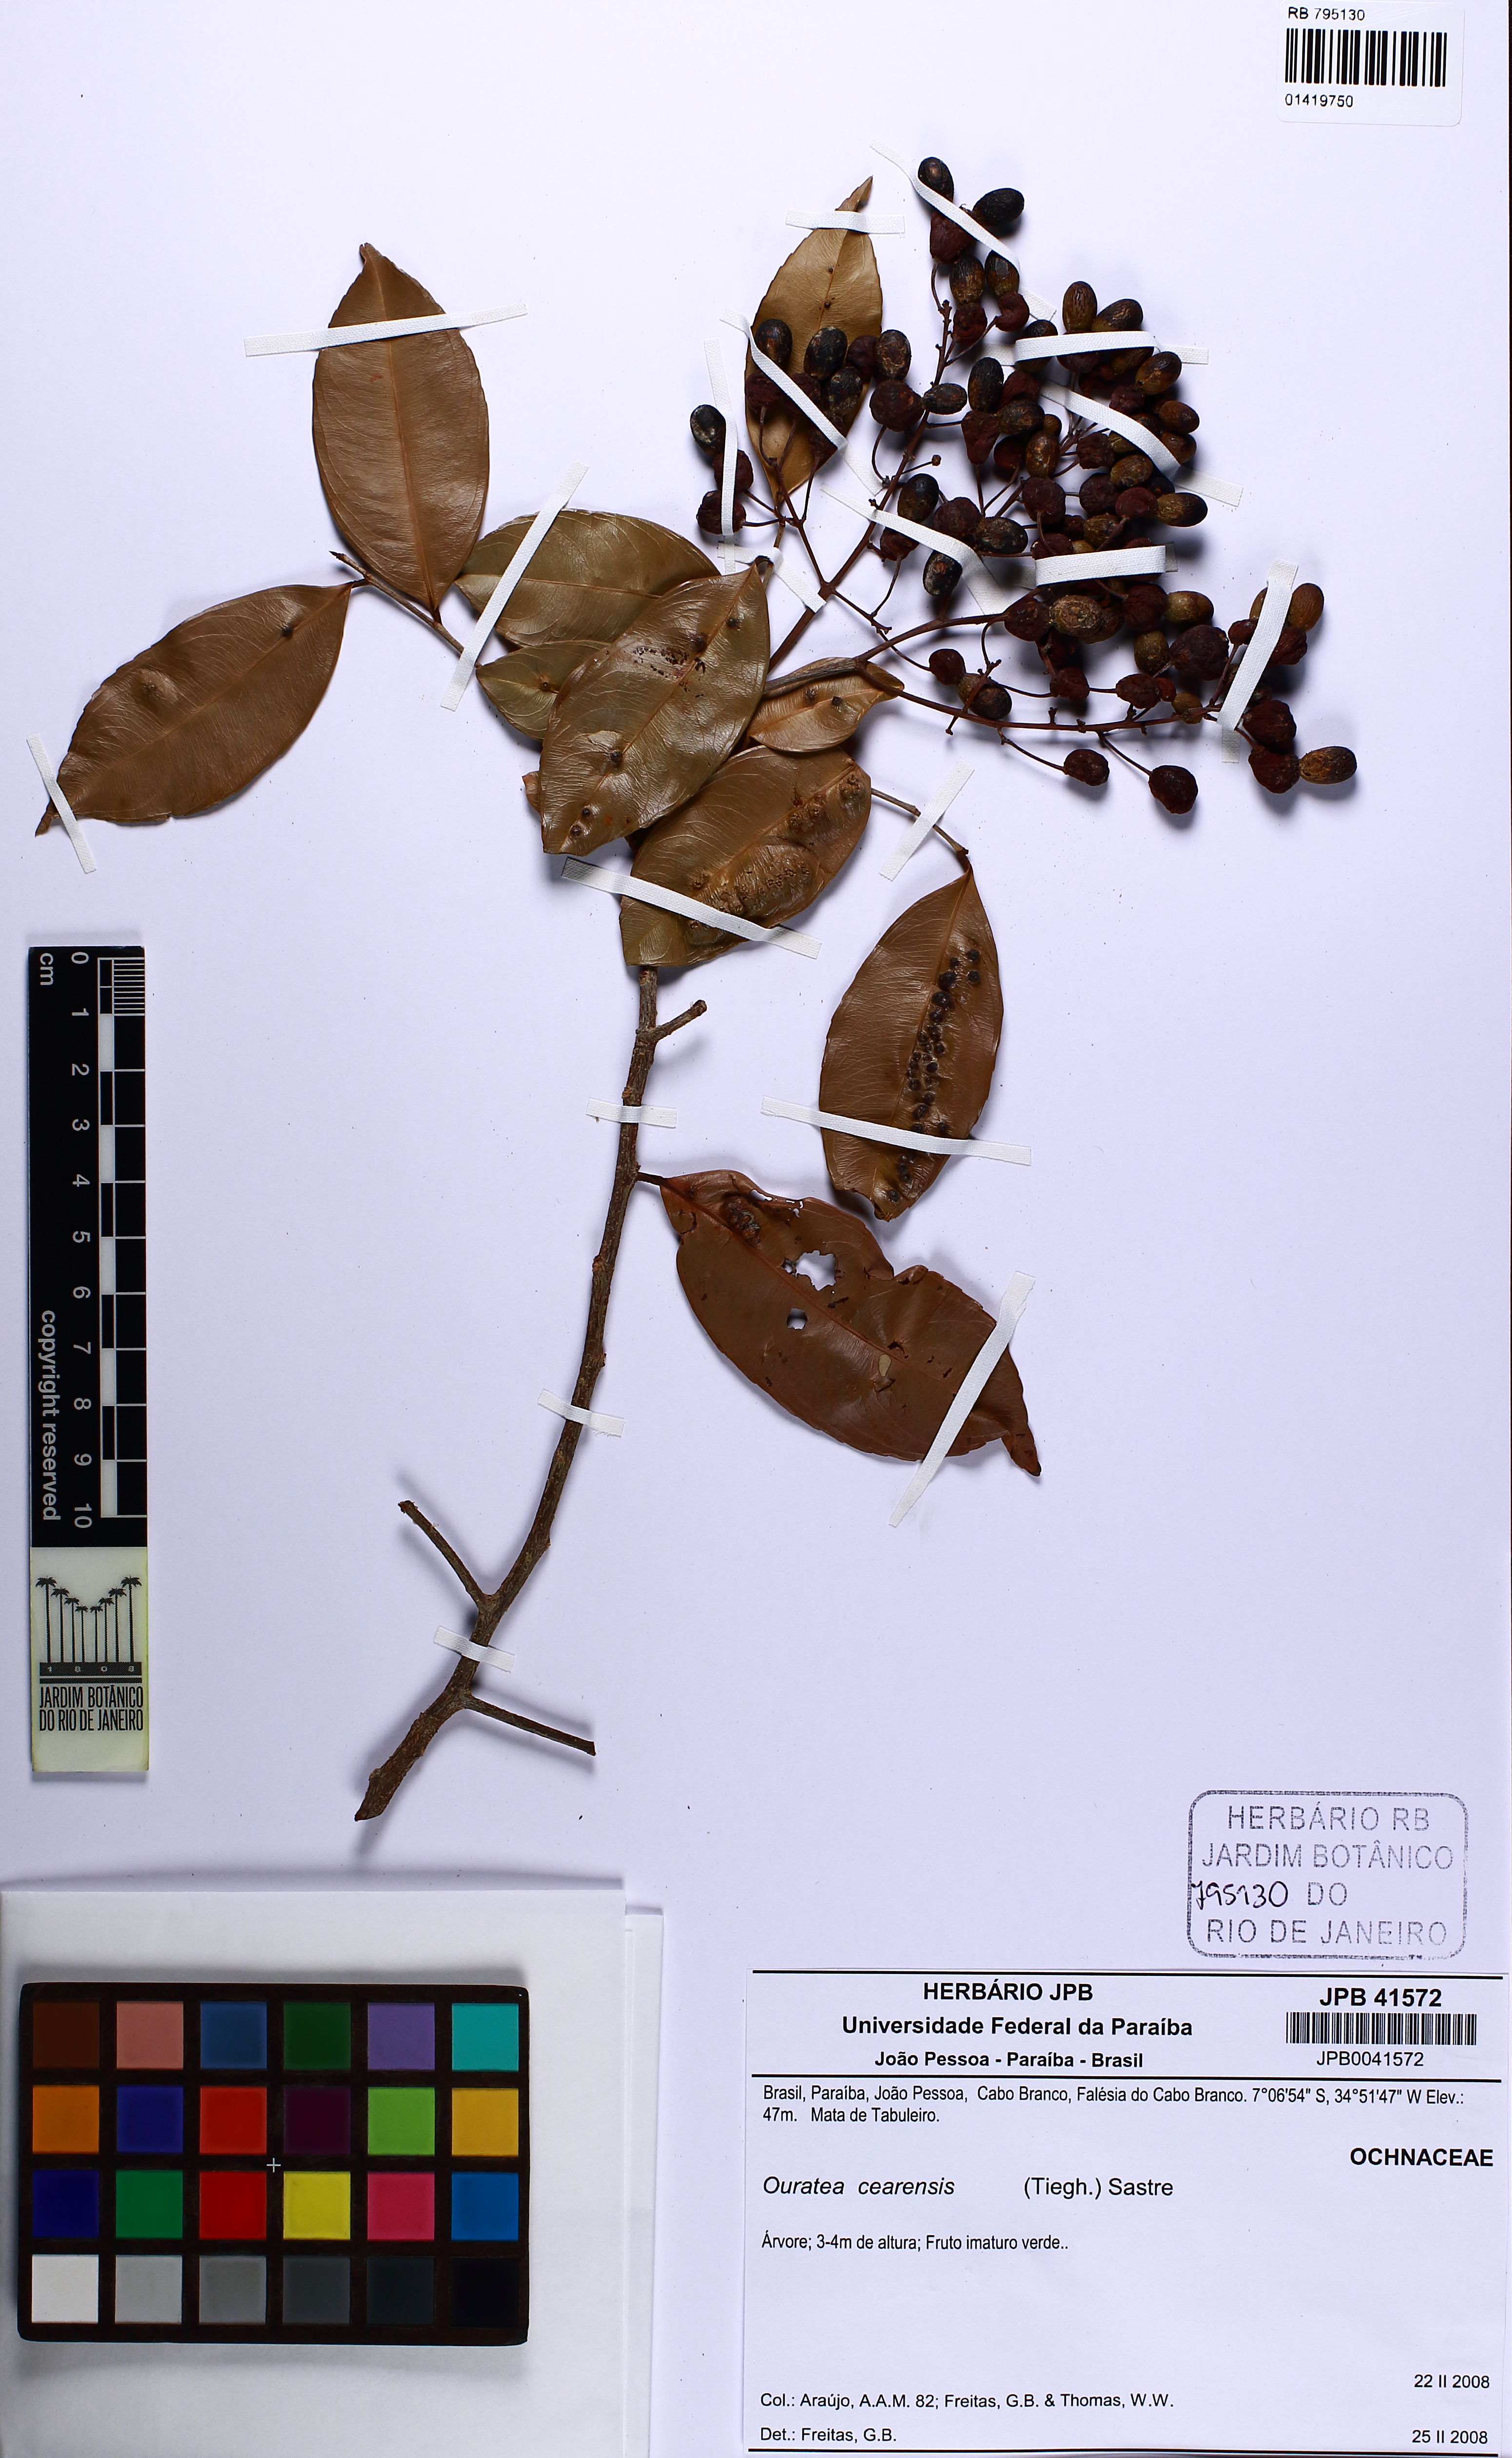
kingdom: Plantae
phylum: Tracheophyta
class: Magnoliopsida
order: Malpighiales
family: Ochnaceae
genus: Ouratea
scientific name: Ouratea cearensis
